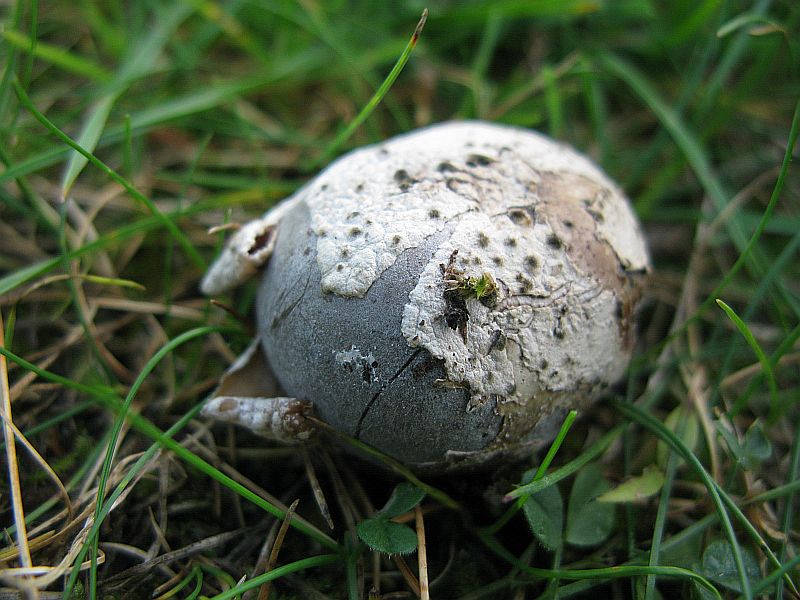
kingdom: Fungi
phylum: Basidiomycota
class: Agaricomycetes
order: Agaricales
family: Lycoperdaceae
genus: Bovista
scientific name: Bovista plumbea
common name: blygrå bovist
